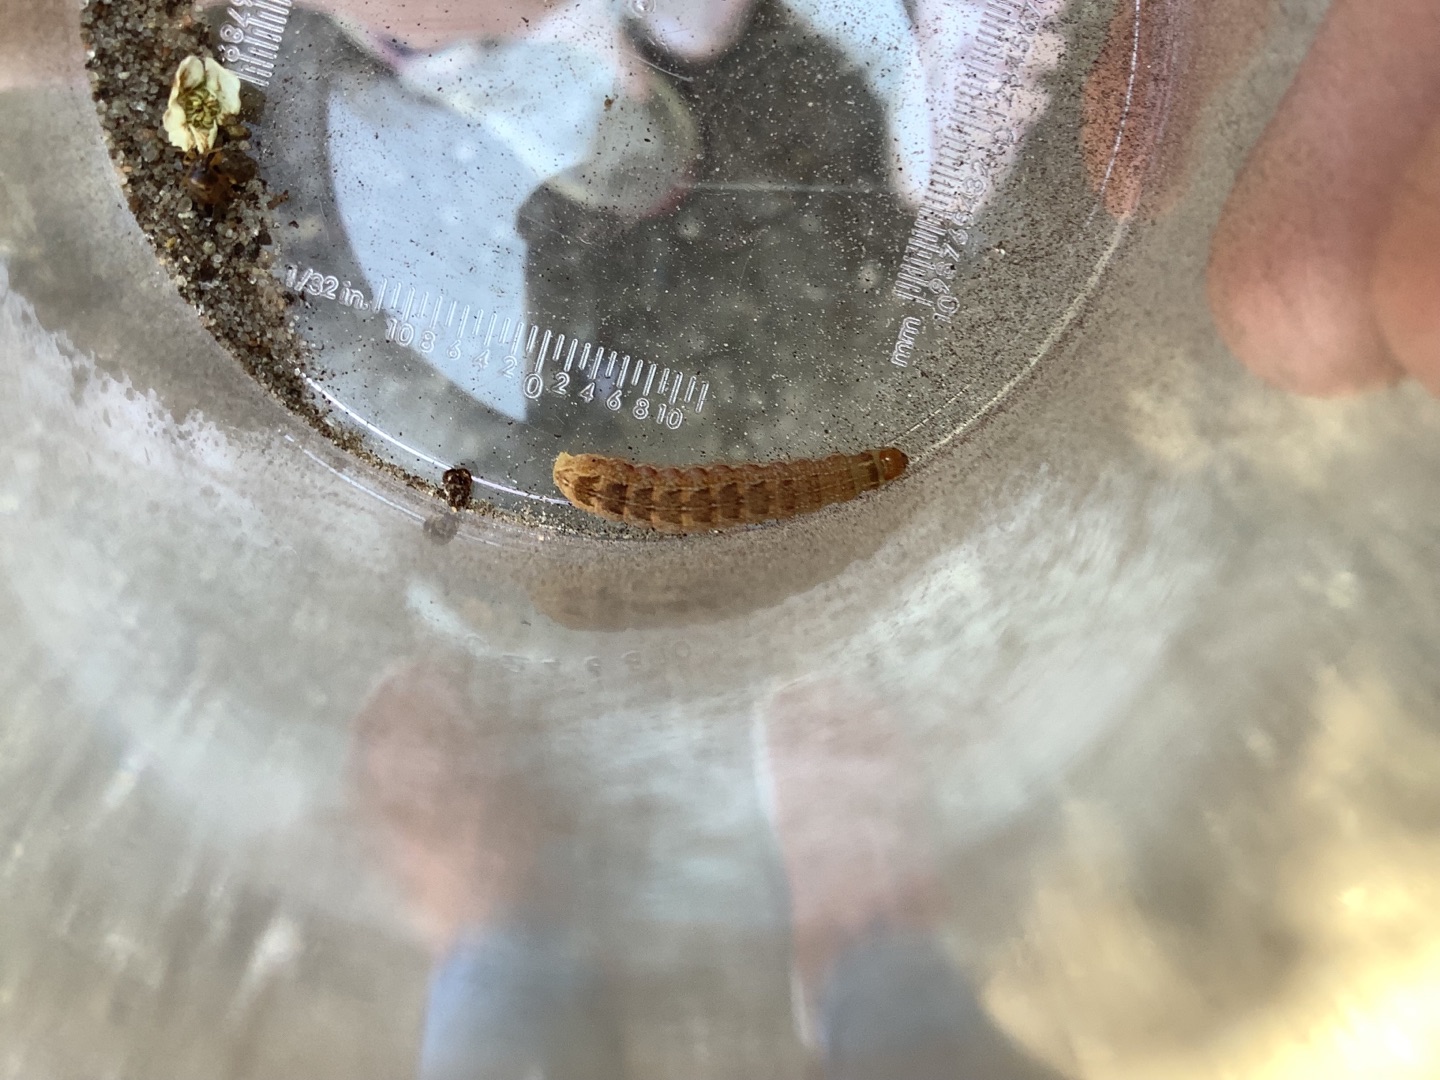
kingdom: Animalia
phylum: Arthropoda
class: Insecta
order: Lepidoptera
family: Noctuidae
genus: Sunira
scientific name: Sunira circellaris
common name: Cirkel-jordfarveugle
